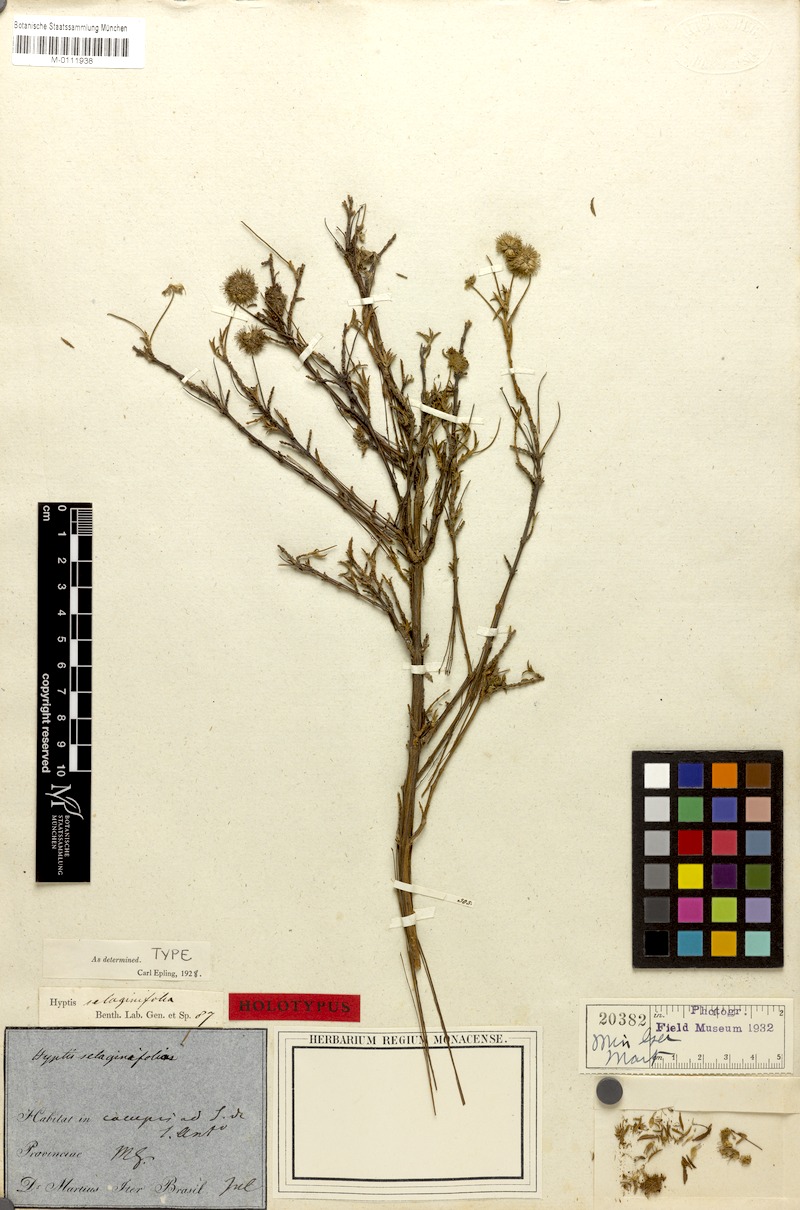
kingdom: Plantae
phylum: Tracheophyta
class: Magnoliopsida
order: Lamiales
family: Lamiaceae
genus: Cyanocephalus
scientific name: Cyanocephalus selaginifolius
